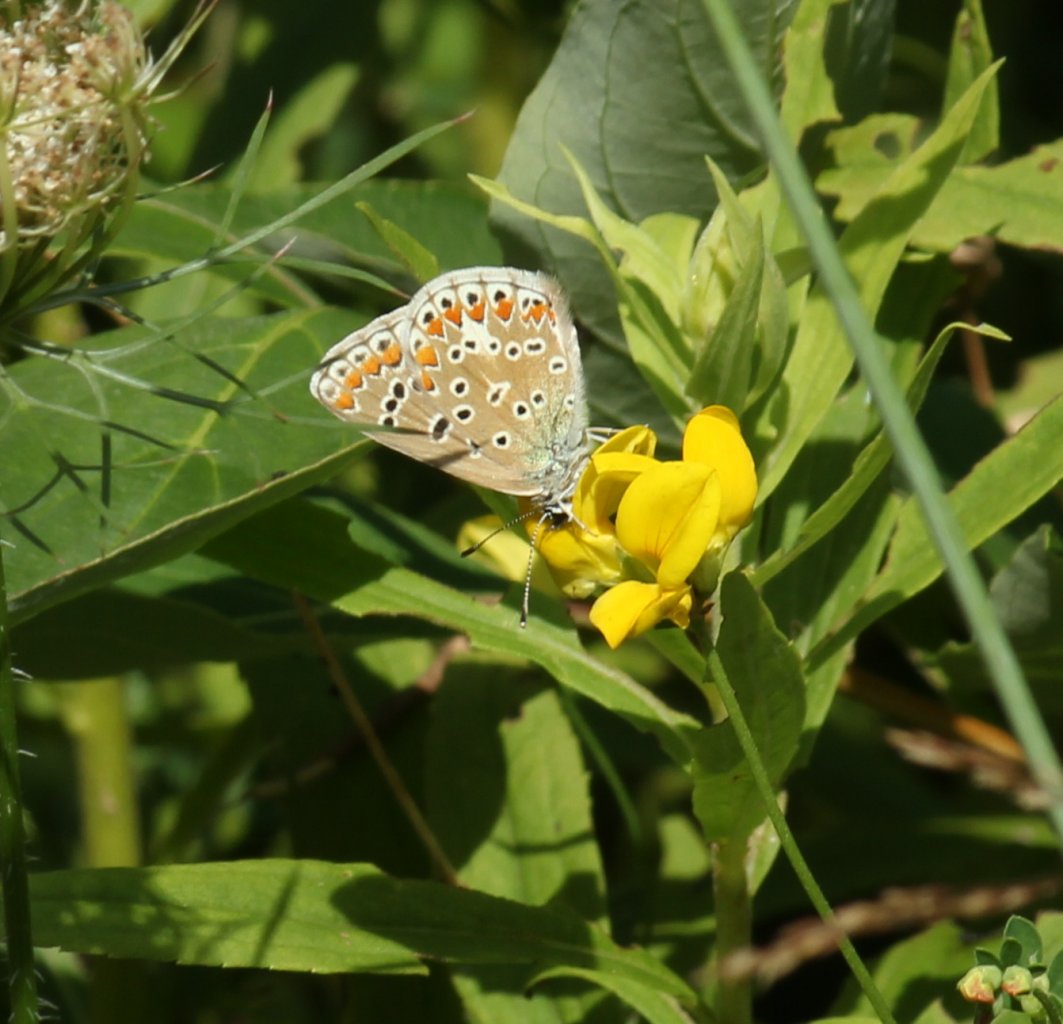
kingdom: Animalia
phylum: Arthropoda
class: Insecta
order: Lepidoptera
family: Lycaenidae
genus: Polyommatus
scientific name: Polyommatus icarus
